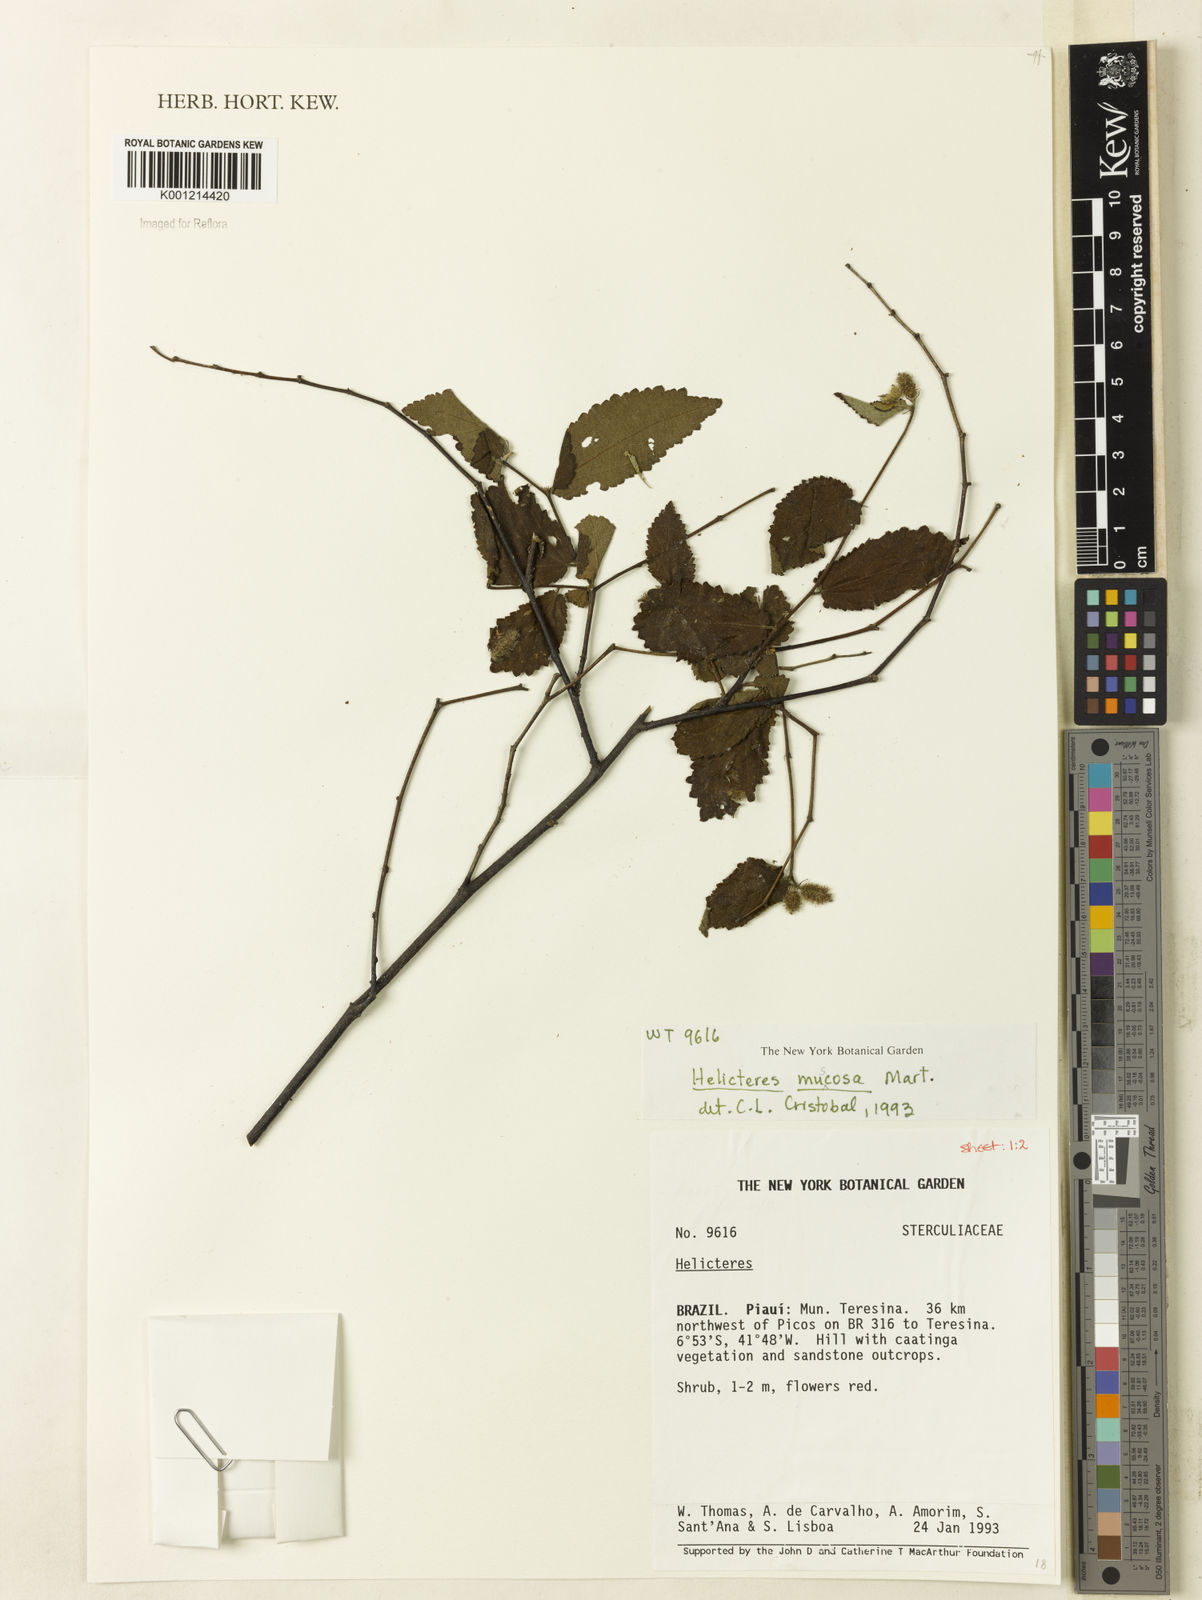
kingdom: Plantae
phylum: Tracheophyta
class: Magnoliopsida
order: Malvales
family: Malvaceae
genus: Helicteres
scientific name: Helicteres muscosa
